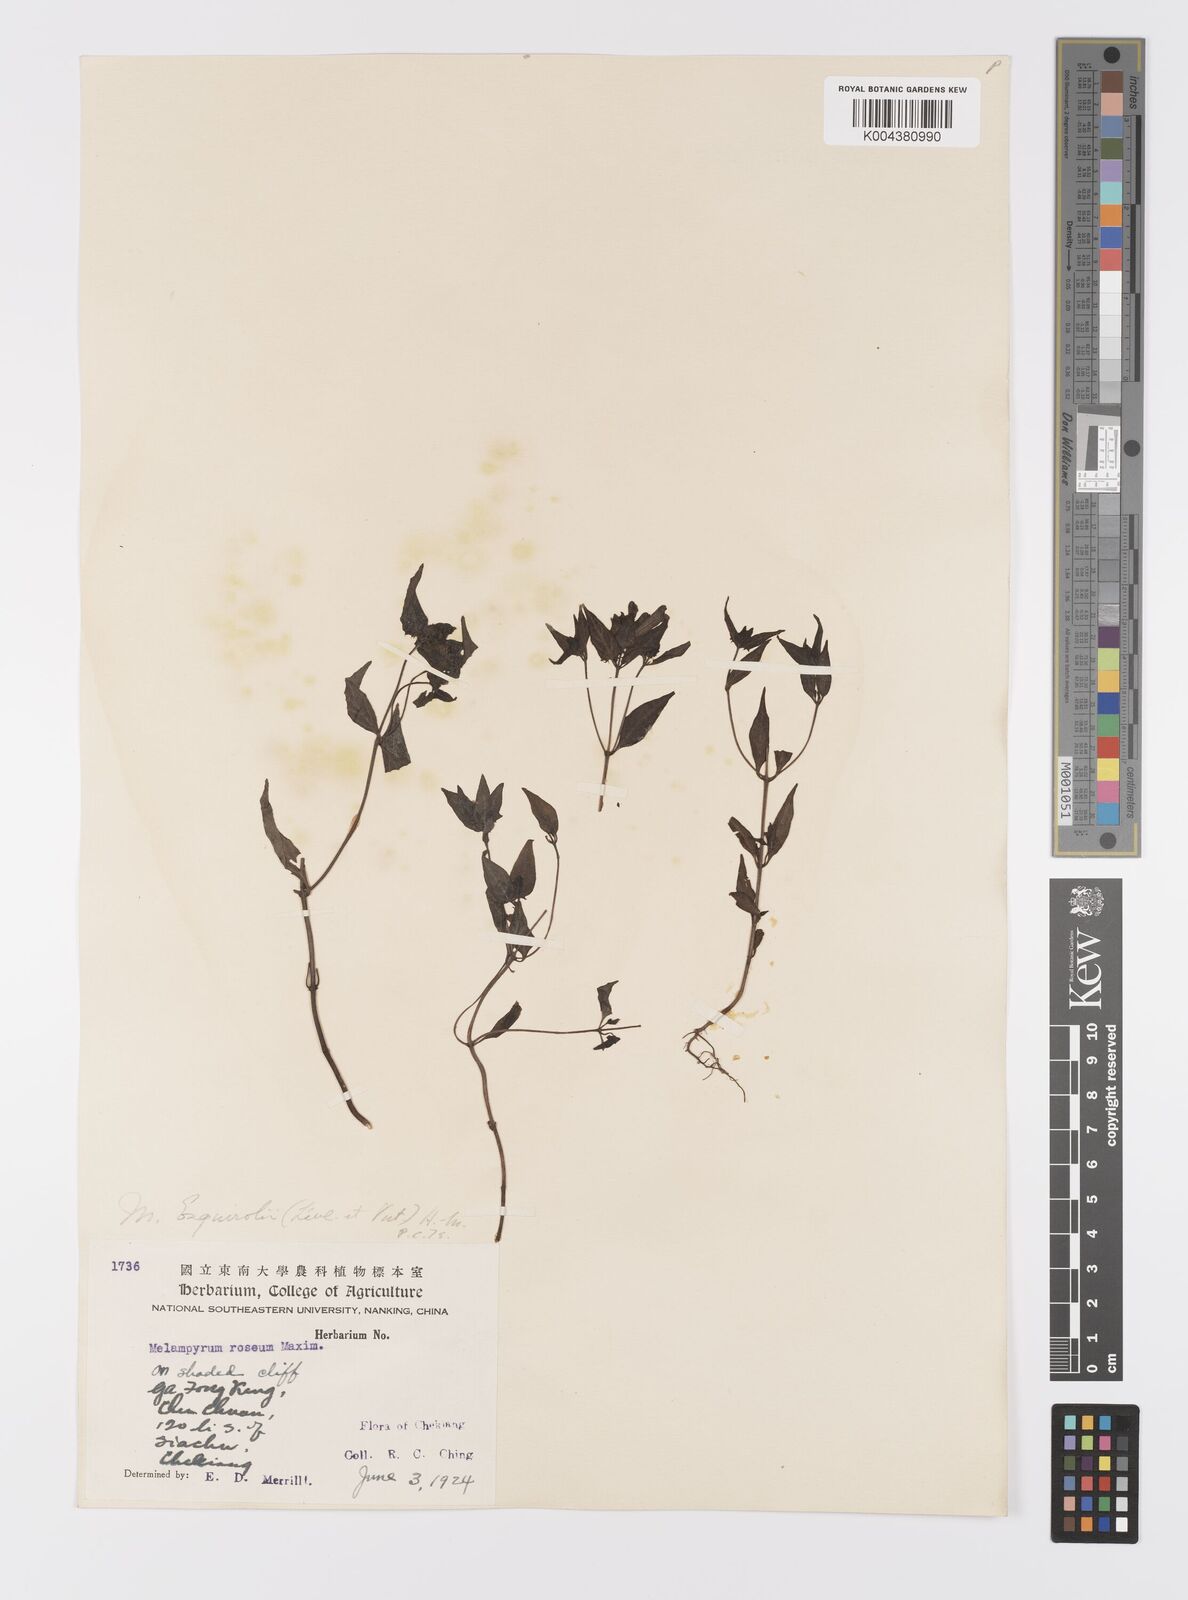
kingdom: Plantae
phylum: Tracheophyta
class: Magnoliopsida
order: Lamiales
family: Orobanchaceae
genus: Melampyrum
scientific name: Melampyrum roseum
